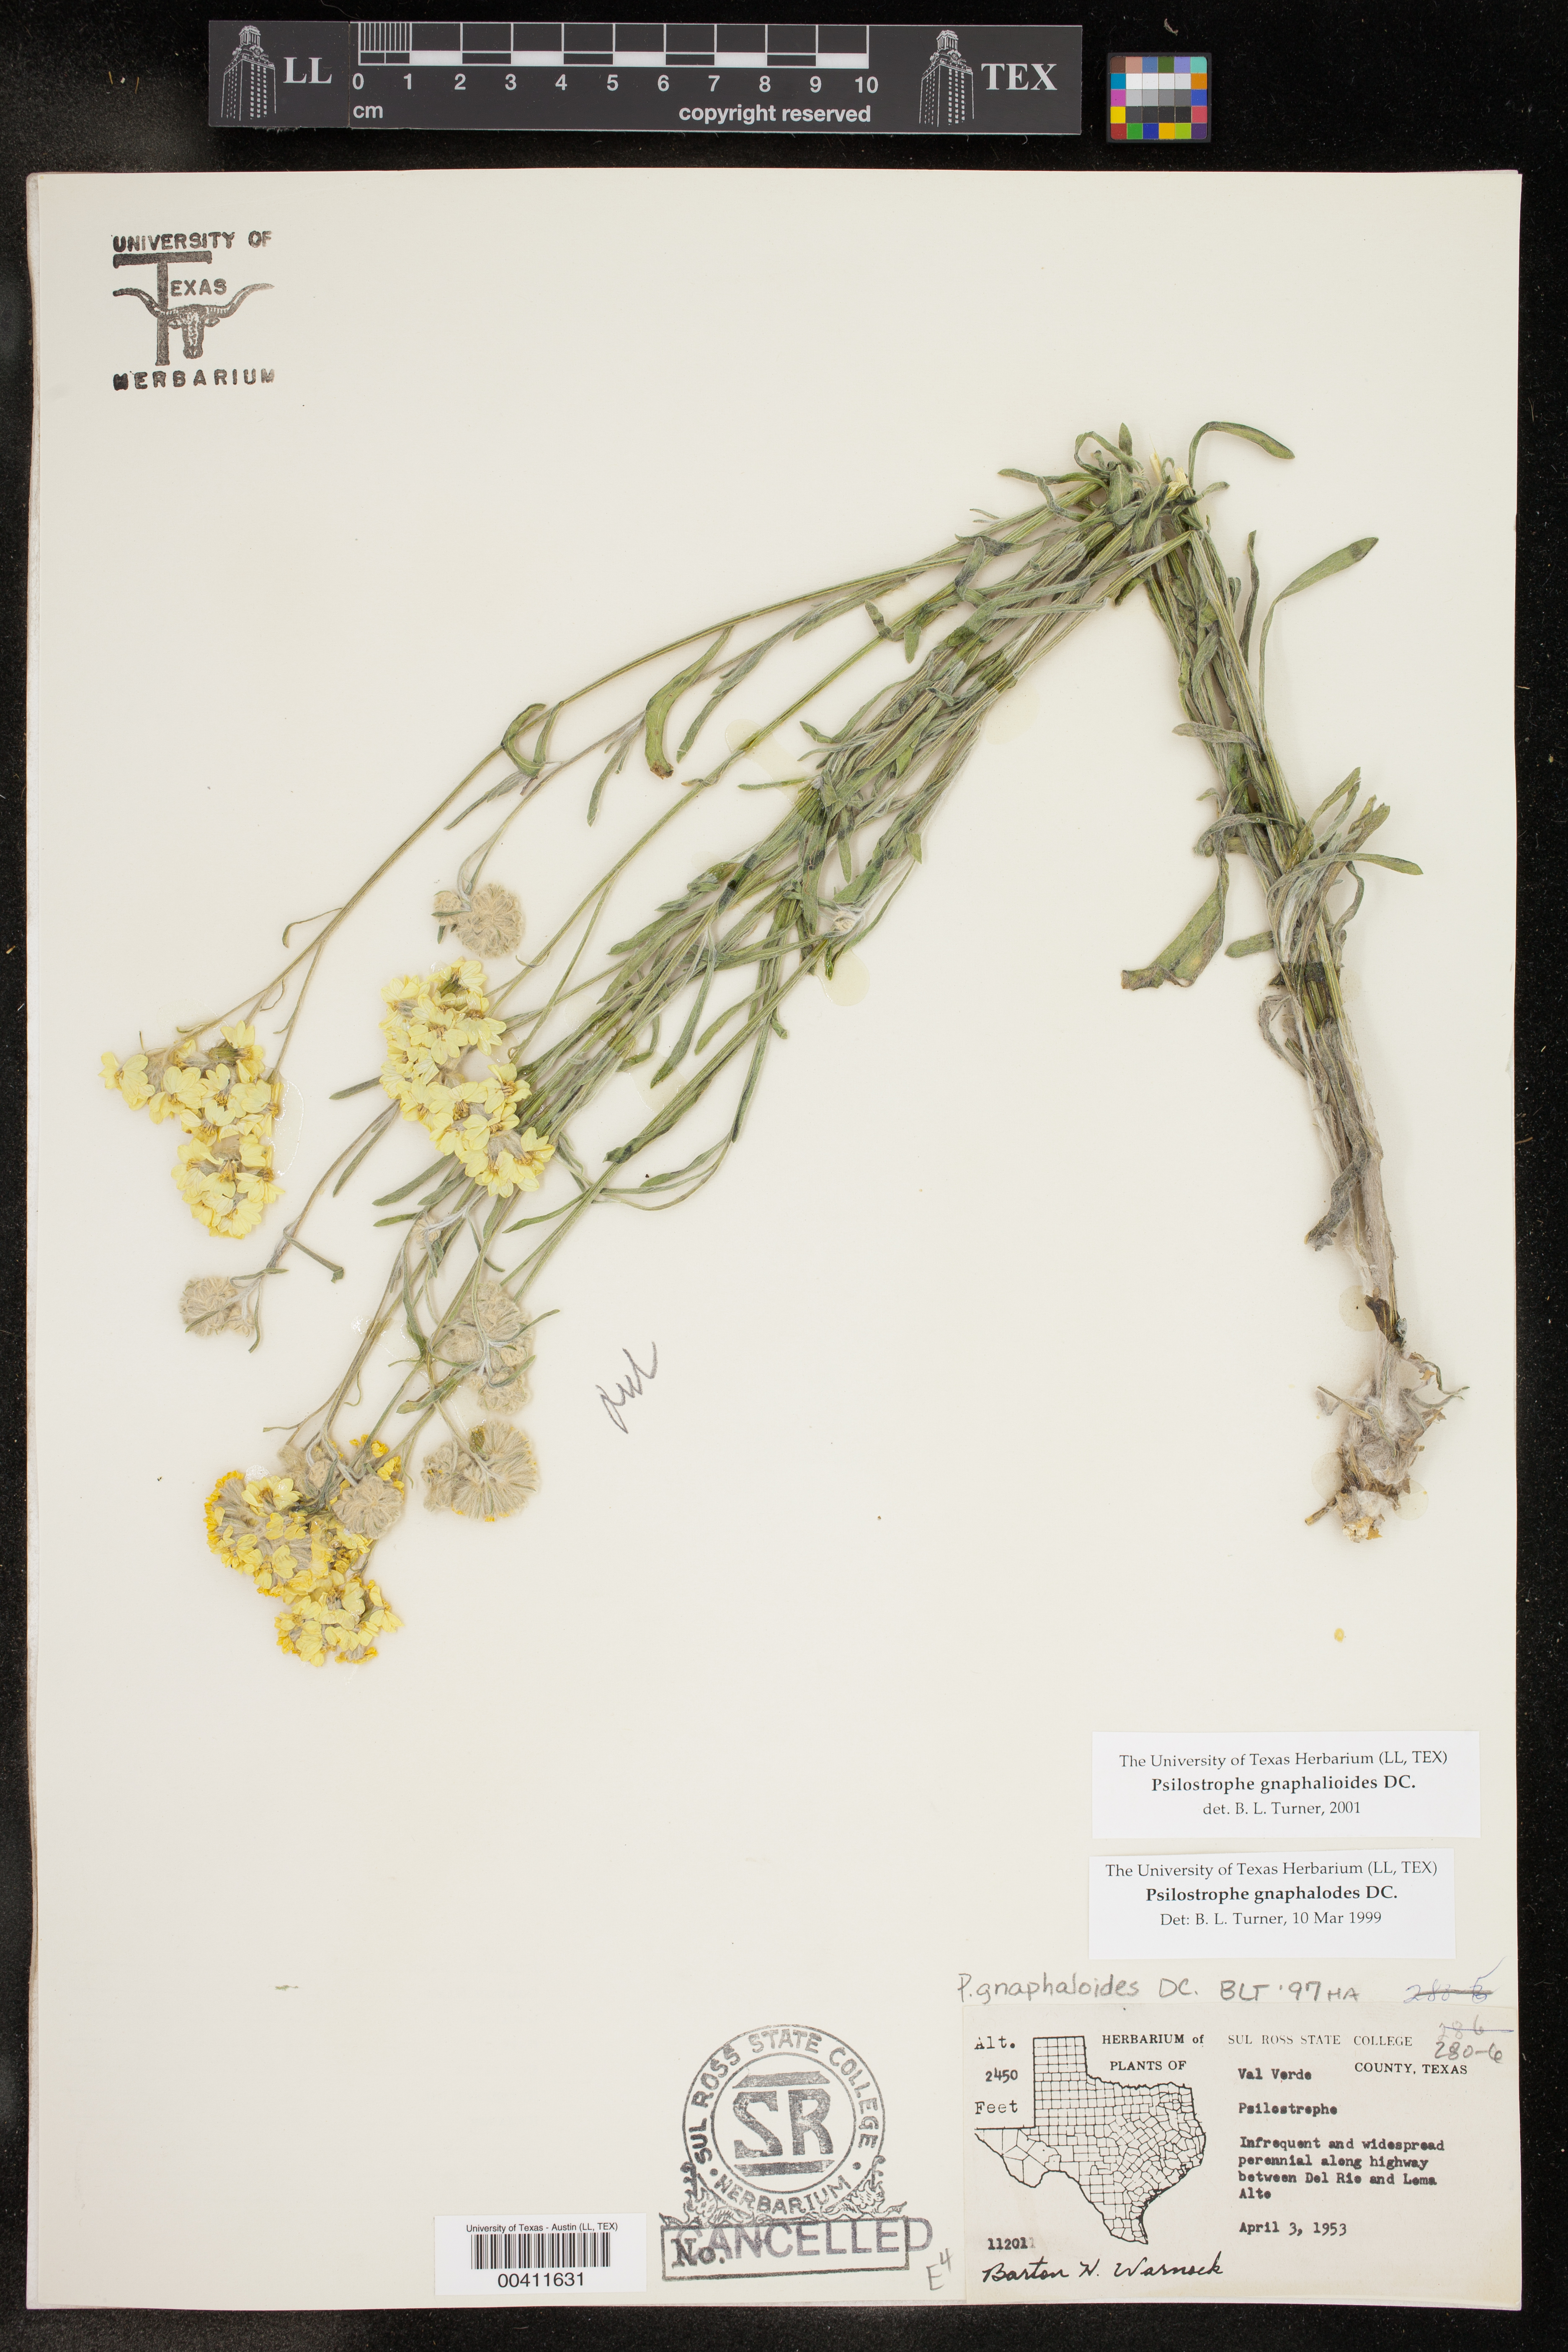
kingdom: Plantae
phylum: Tracheophyta
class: Magnoliopsida
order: Asterales
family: Asteraceae
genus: Psilostrophe
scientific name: Psilostrophe gnaphalioides
